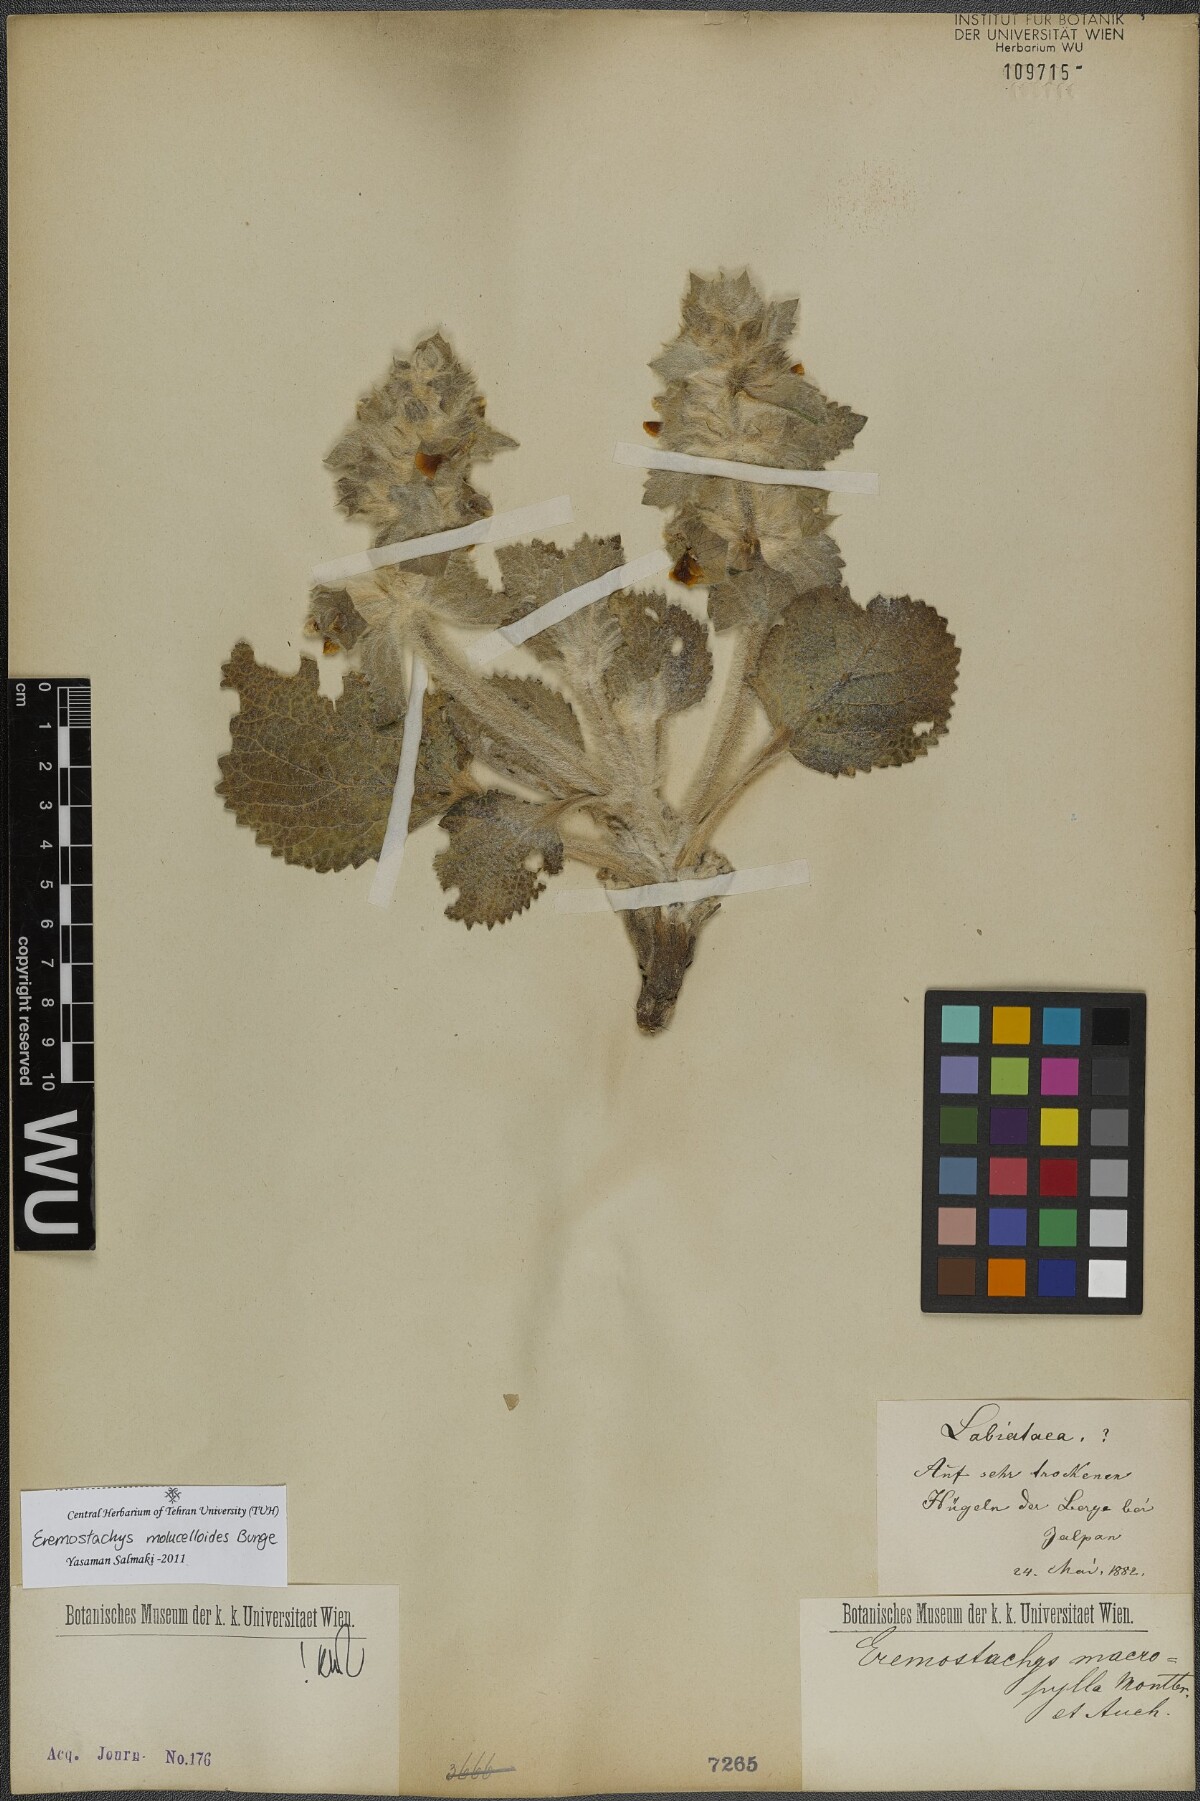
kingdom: Plantae
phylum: Tracheophyta
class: Magnoliopsida
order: Lamiales
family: Lamiaceae
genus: Phlomoides
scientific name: Phlomoides molucelloides
